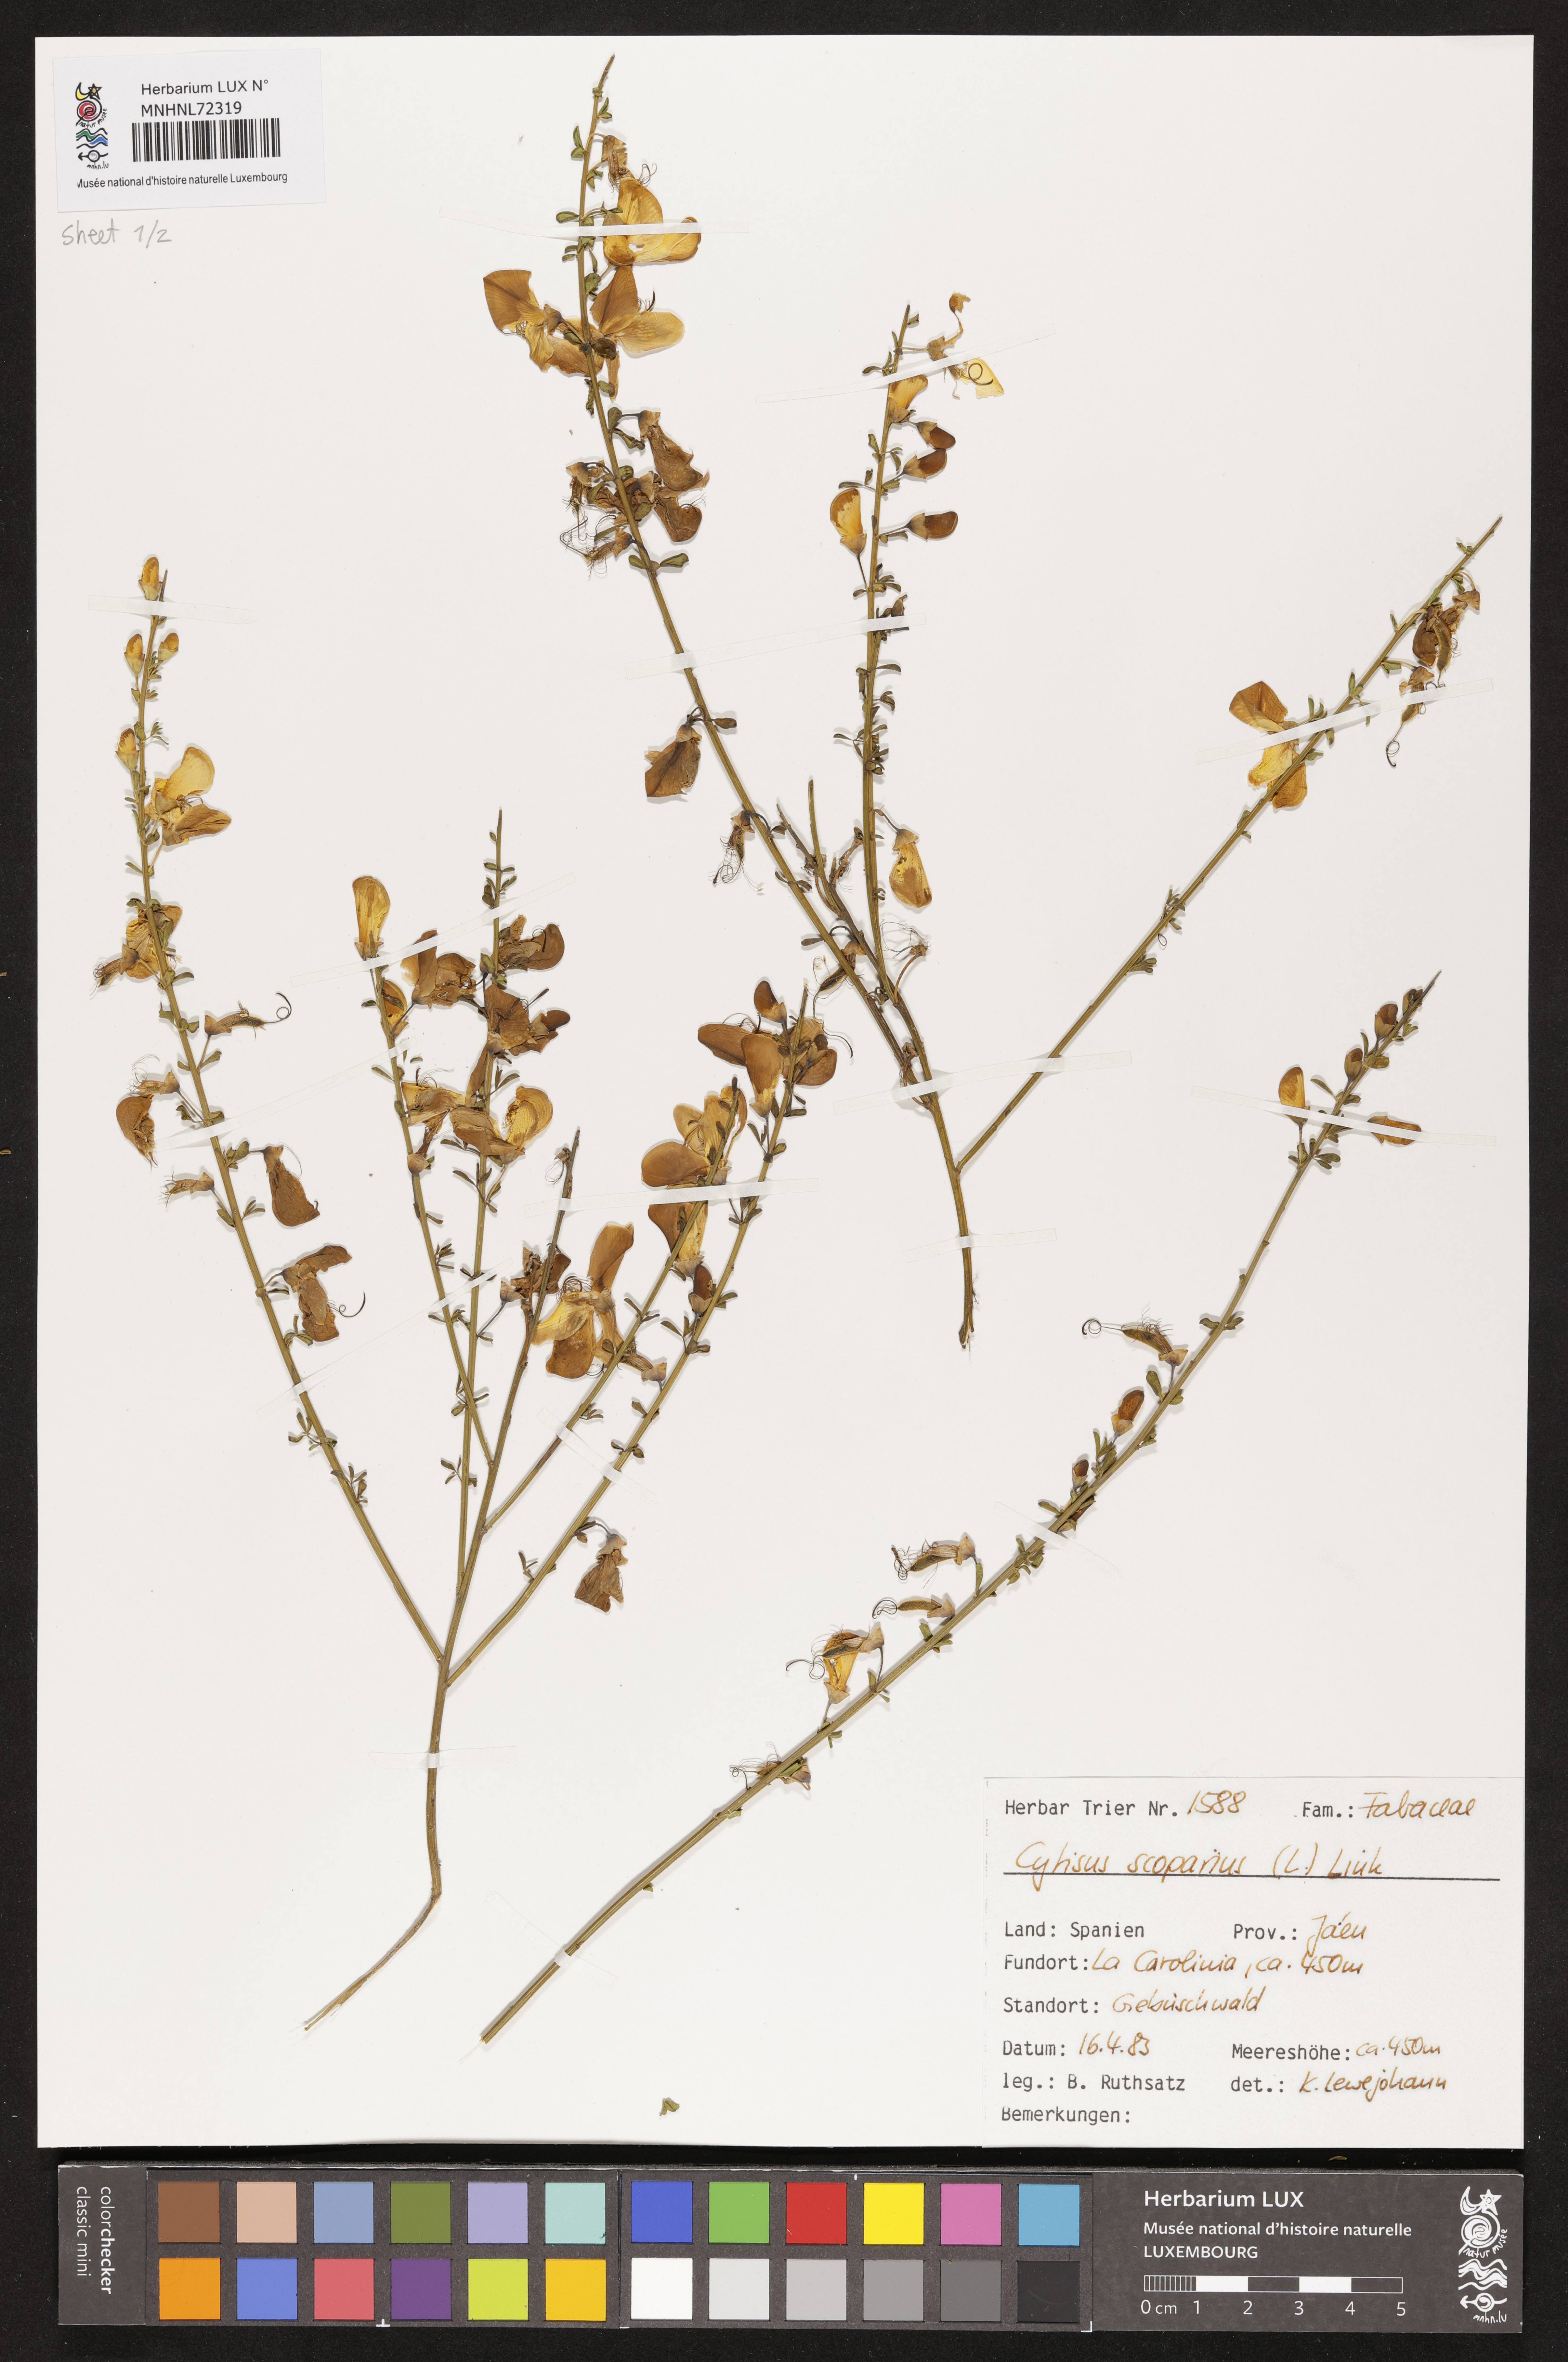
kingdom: Plantae
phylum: Tracheophyta
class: Magnoliopsida
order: Fabales
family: Fabaceae
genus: Cytisus
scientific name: Cytisus scoparius
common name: Scotch broom
